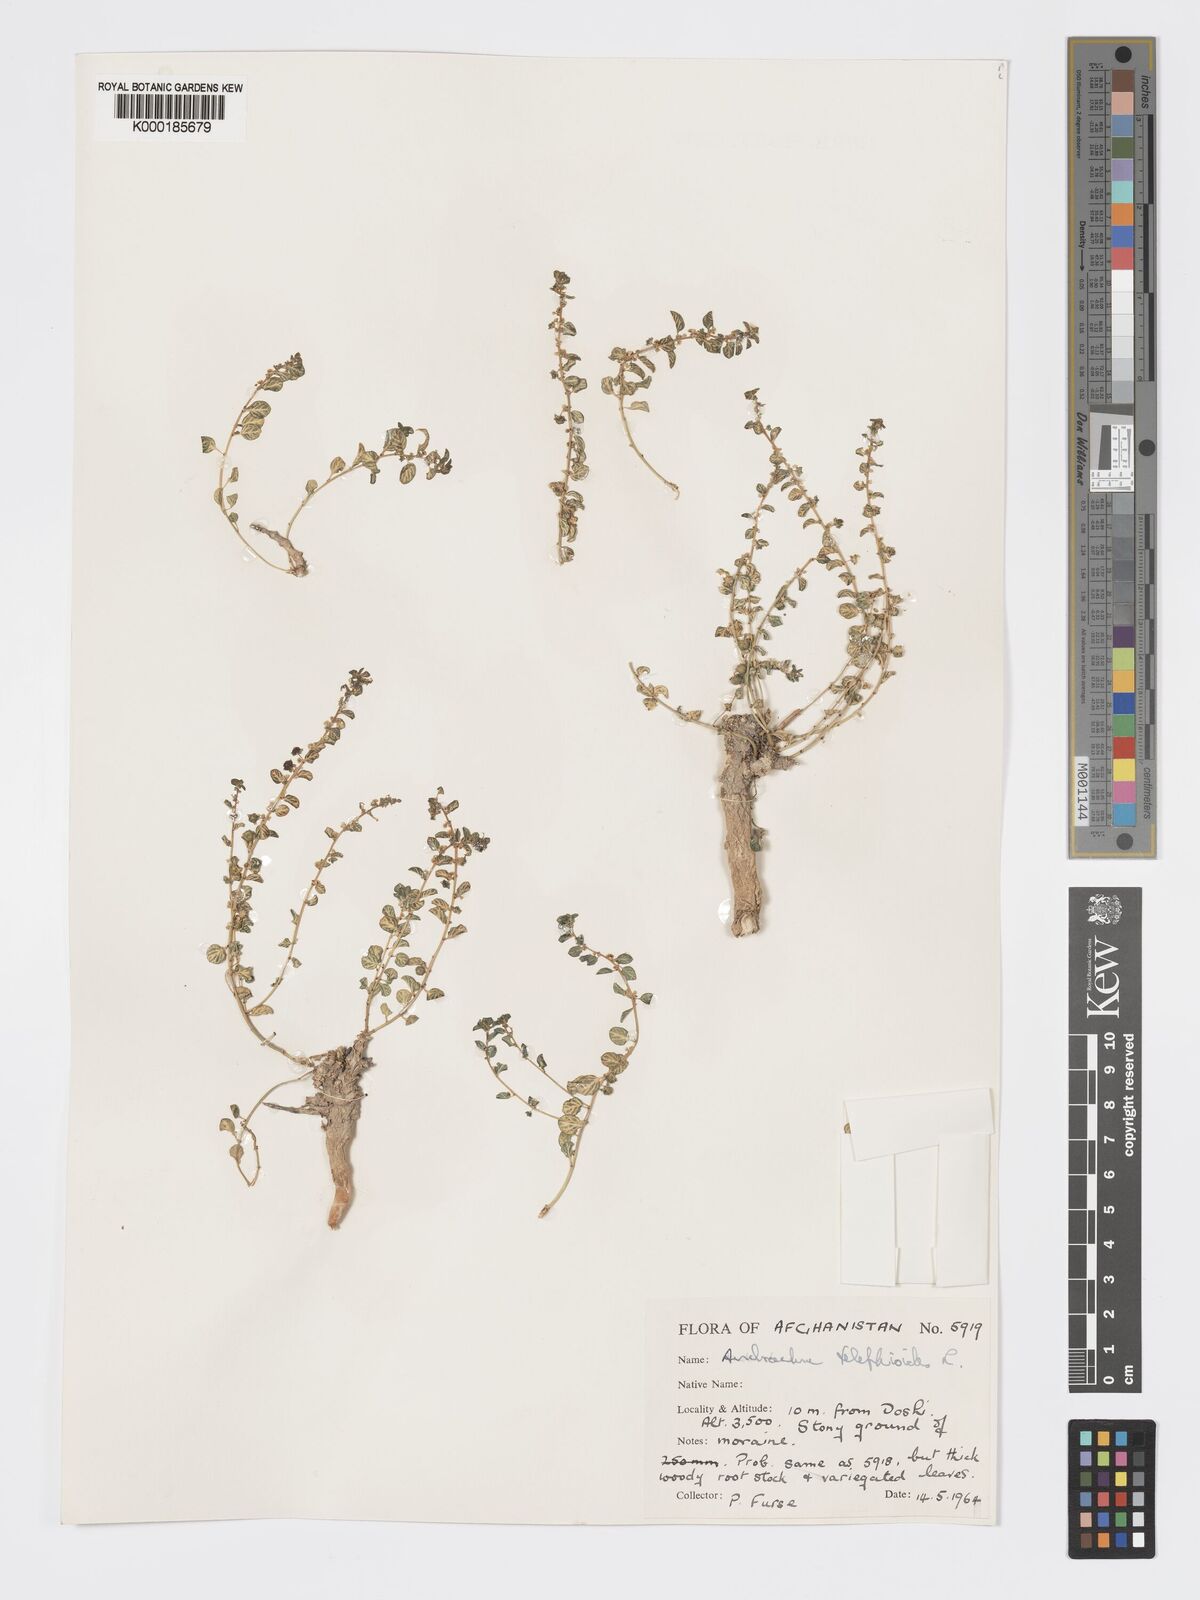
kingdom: Plantae
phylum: Tracheophyta
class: Magnoliopsida
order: Malpighiales
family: Phyllanthaceae
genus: Andrachne
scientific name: Andrachne telephioides
